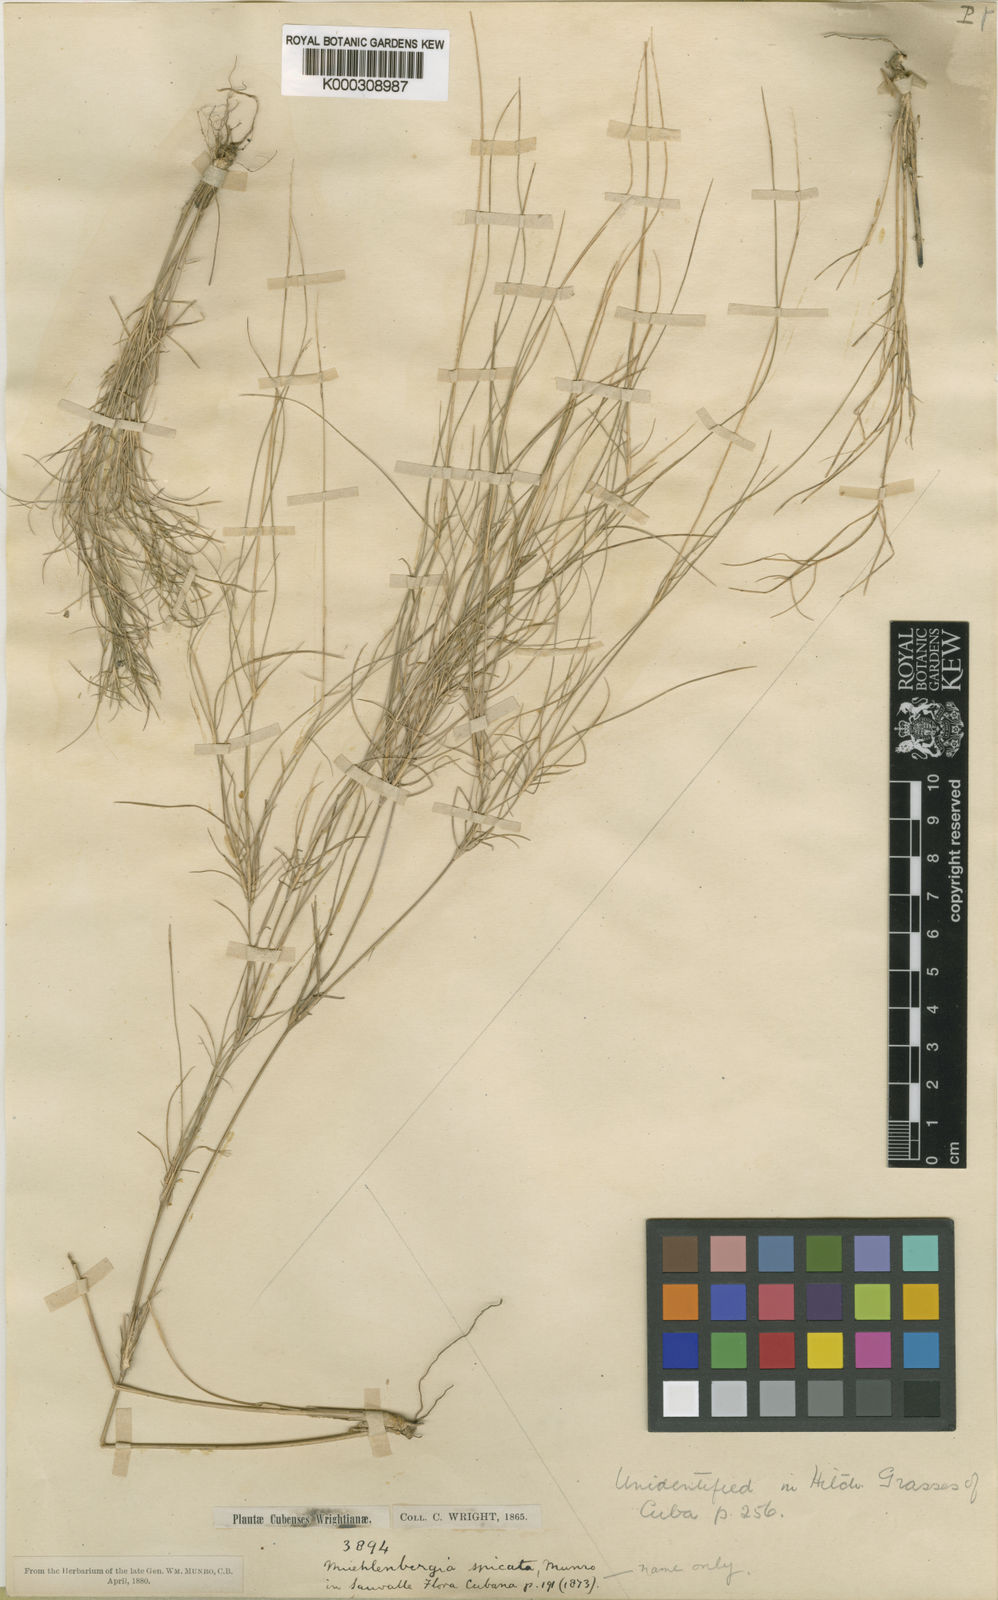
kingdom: Plantae
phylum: Tracheophyta
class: Liliopsida
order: Poales
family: Poaceae
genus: Enteropogon
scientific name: Enteropogon
